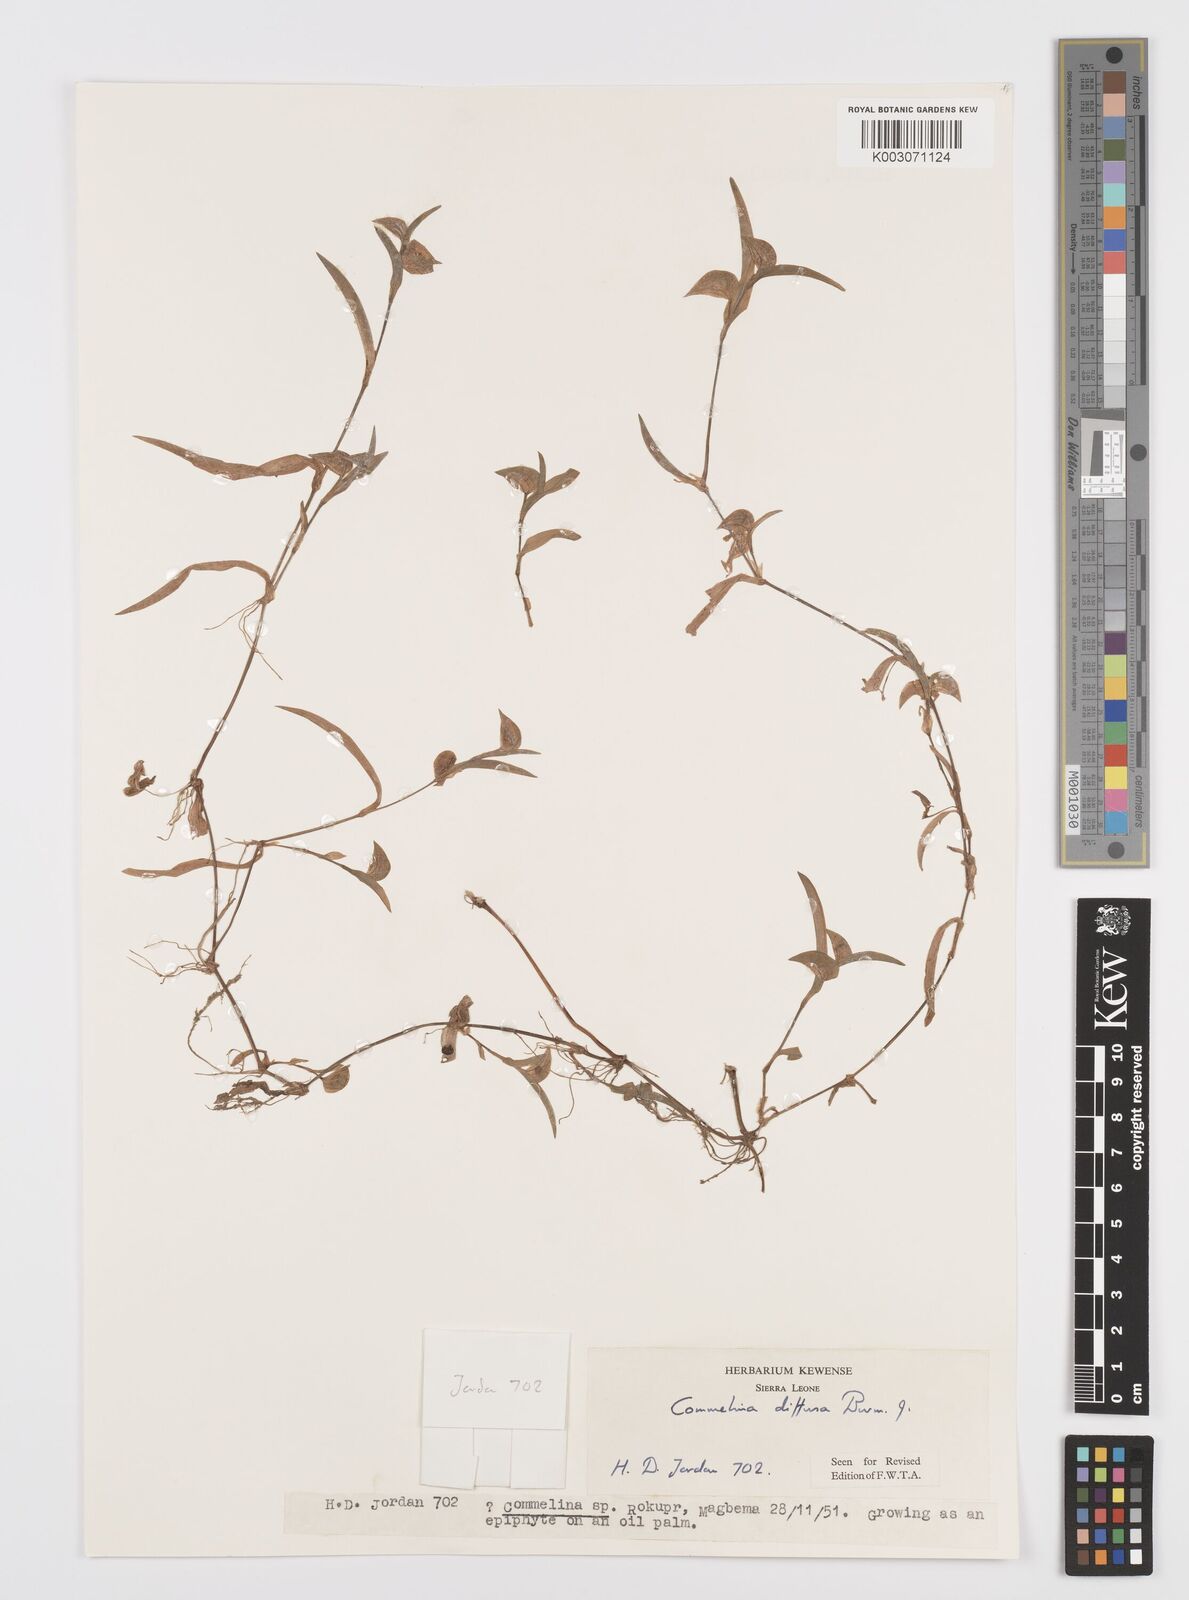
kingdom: Plantae
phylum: Tracheophyta
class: Liliopsida
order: Commelinales
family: Commelinaceae
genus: Commelina
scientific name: Commelina diffusa
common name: Climbing dayflower
